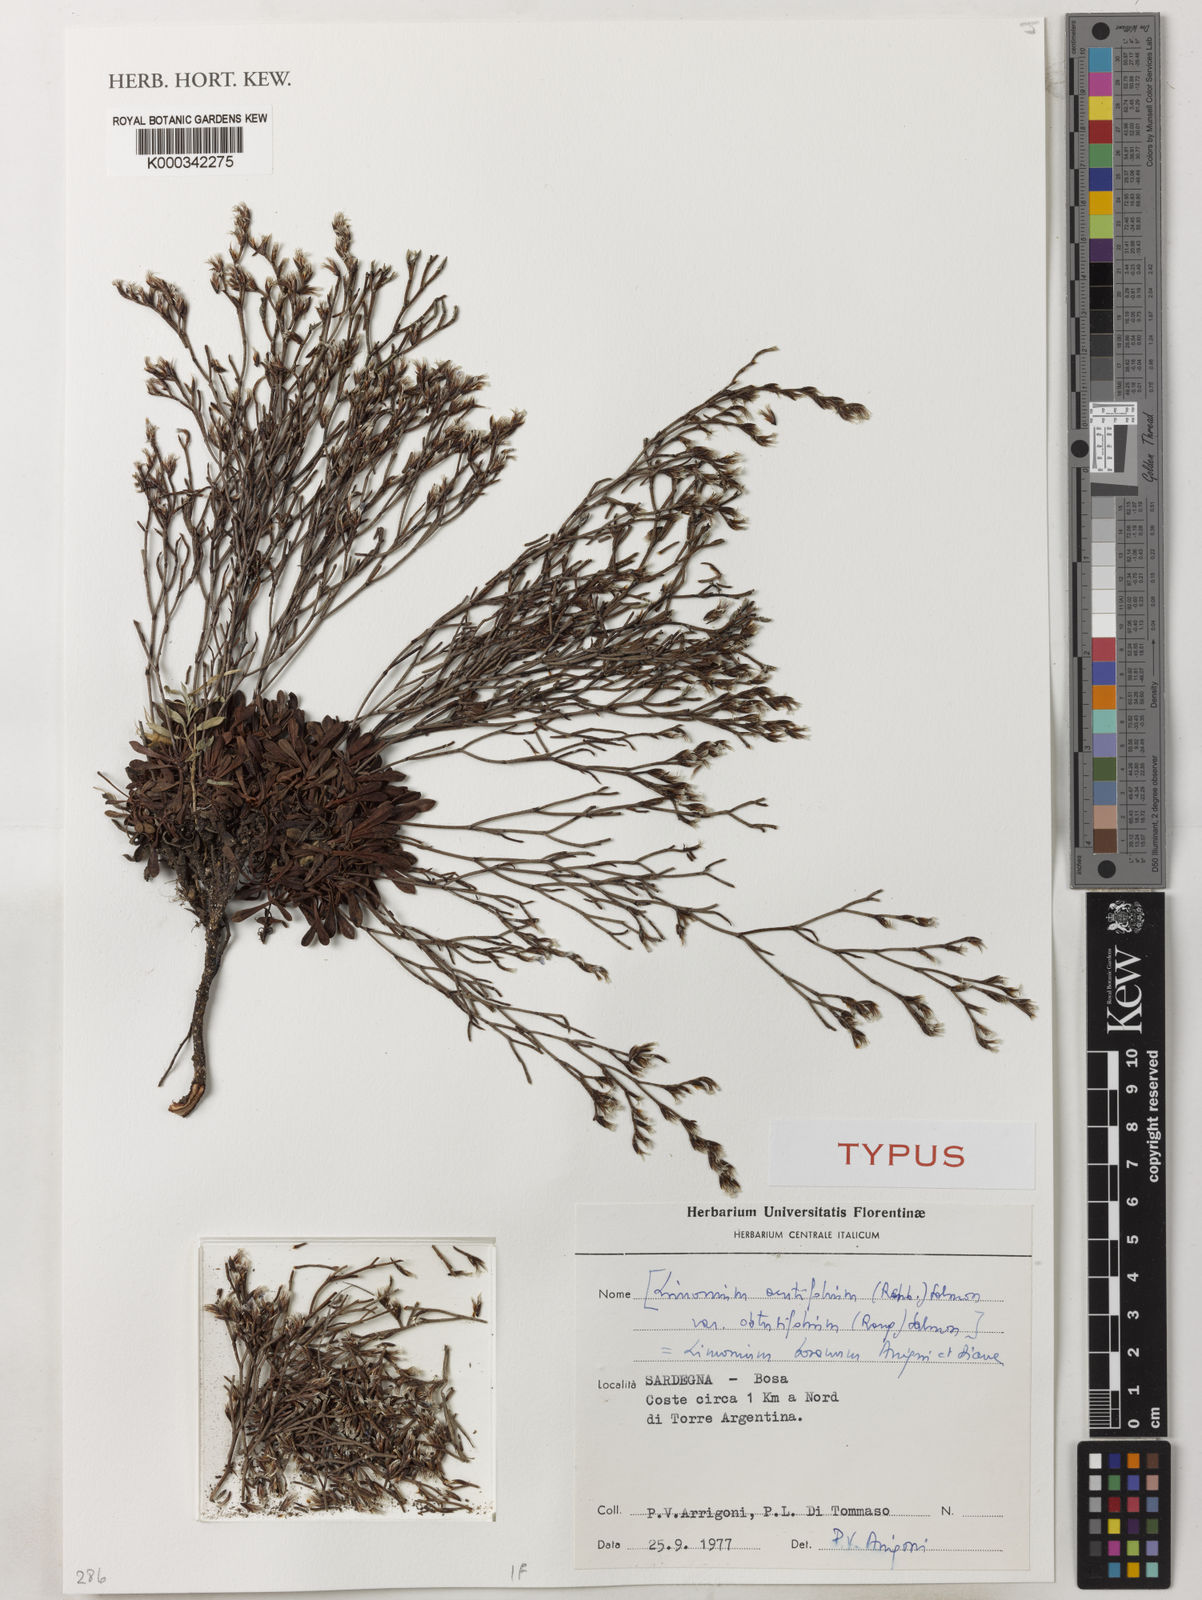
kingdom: Plantae
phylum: Tracheophyta
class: Magnoliopsida
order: Caryophyllales
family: Plumbaginaceae
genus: Limonium
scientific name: Limonium acutifolium
